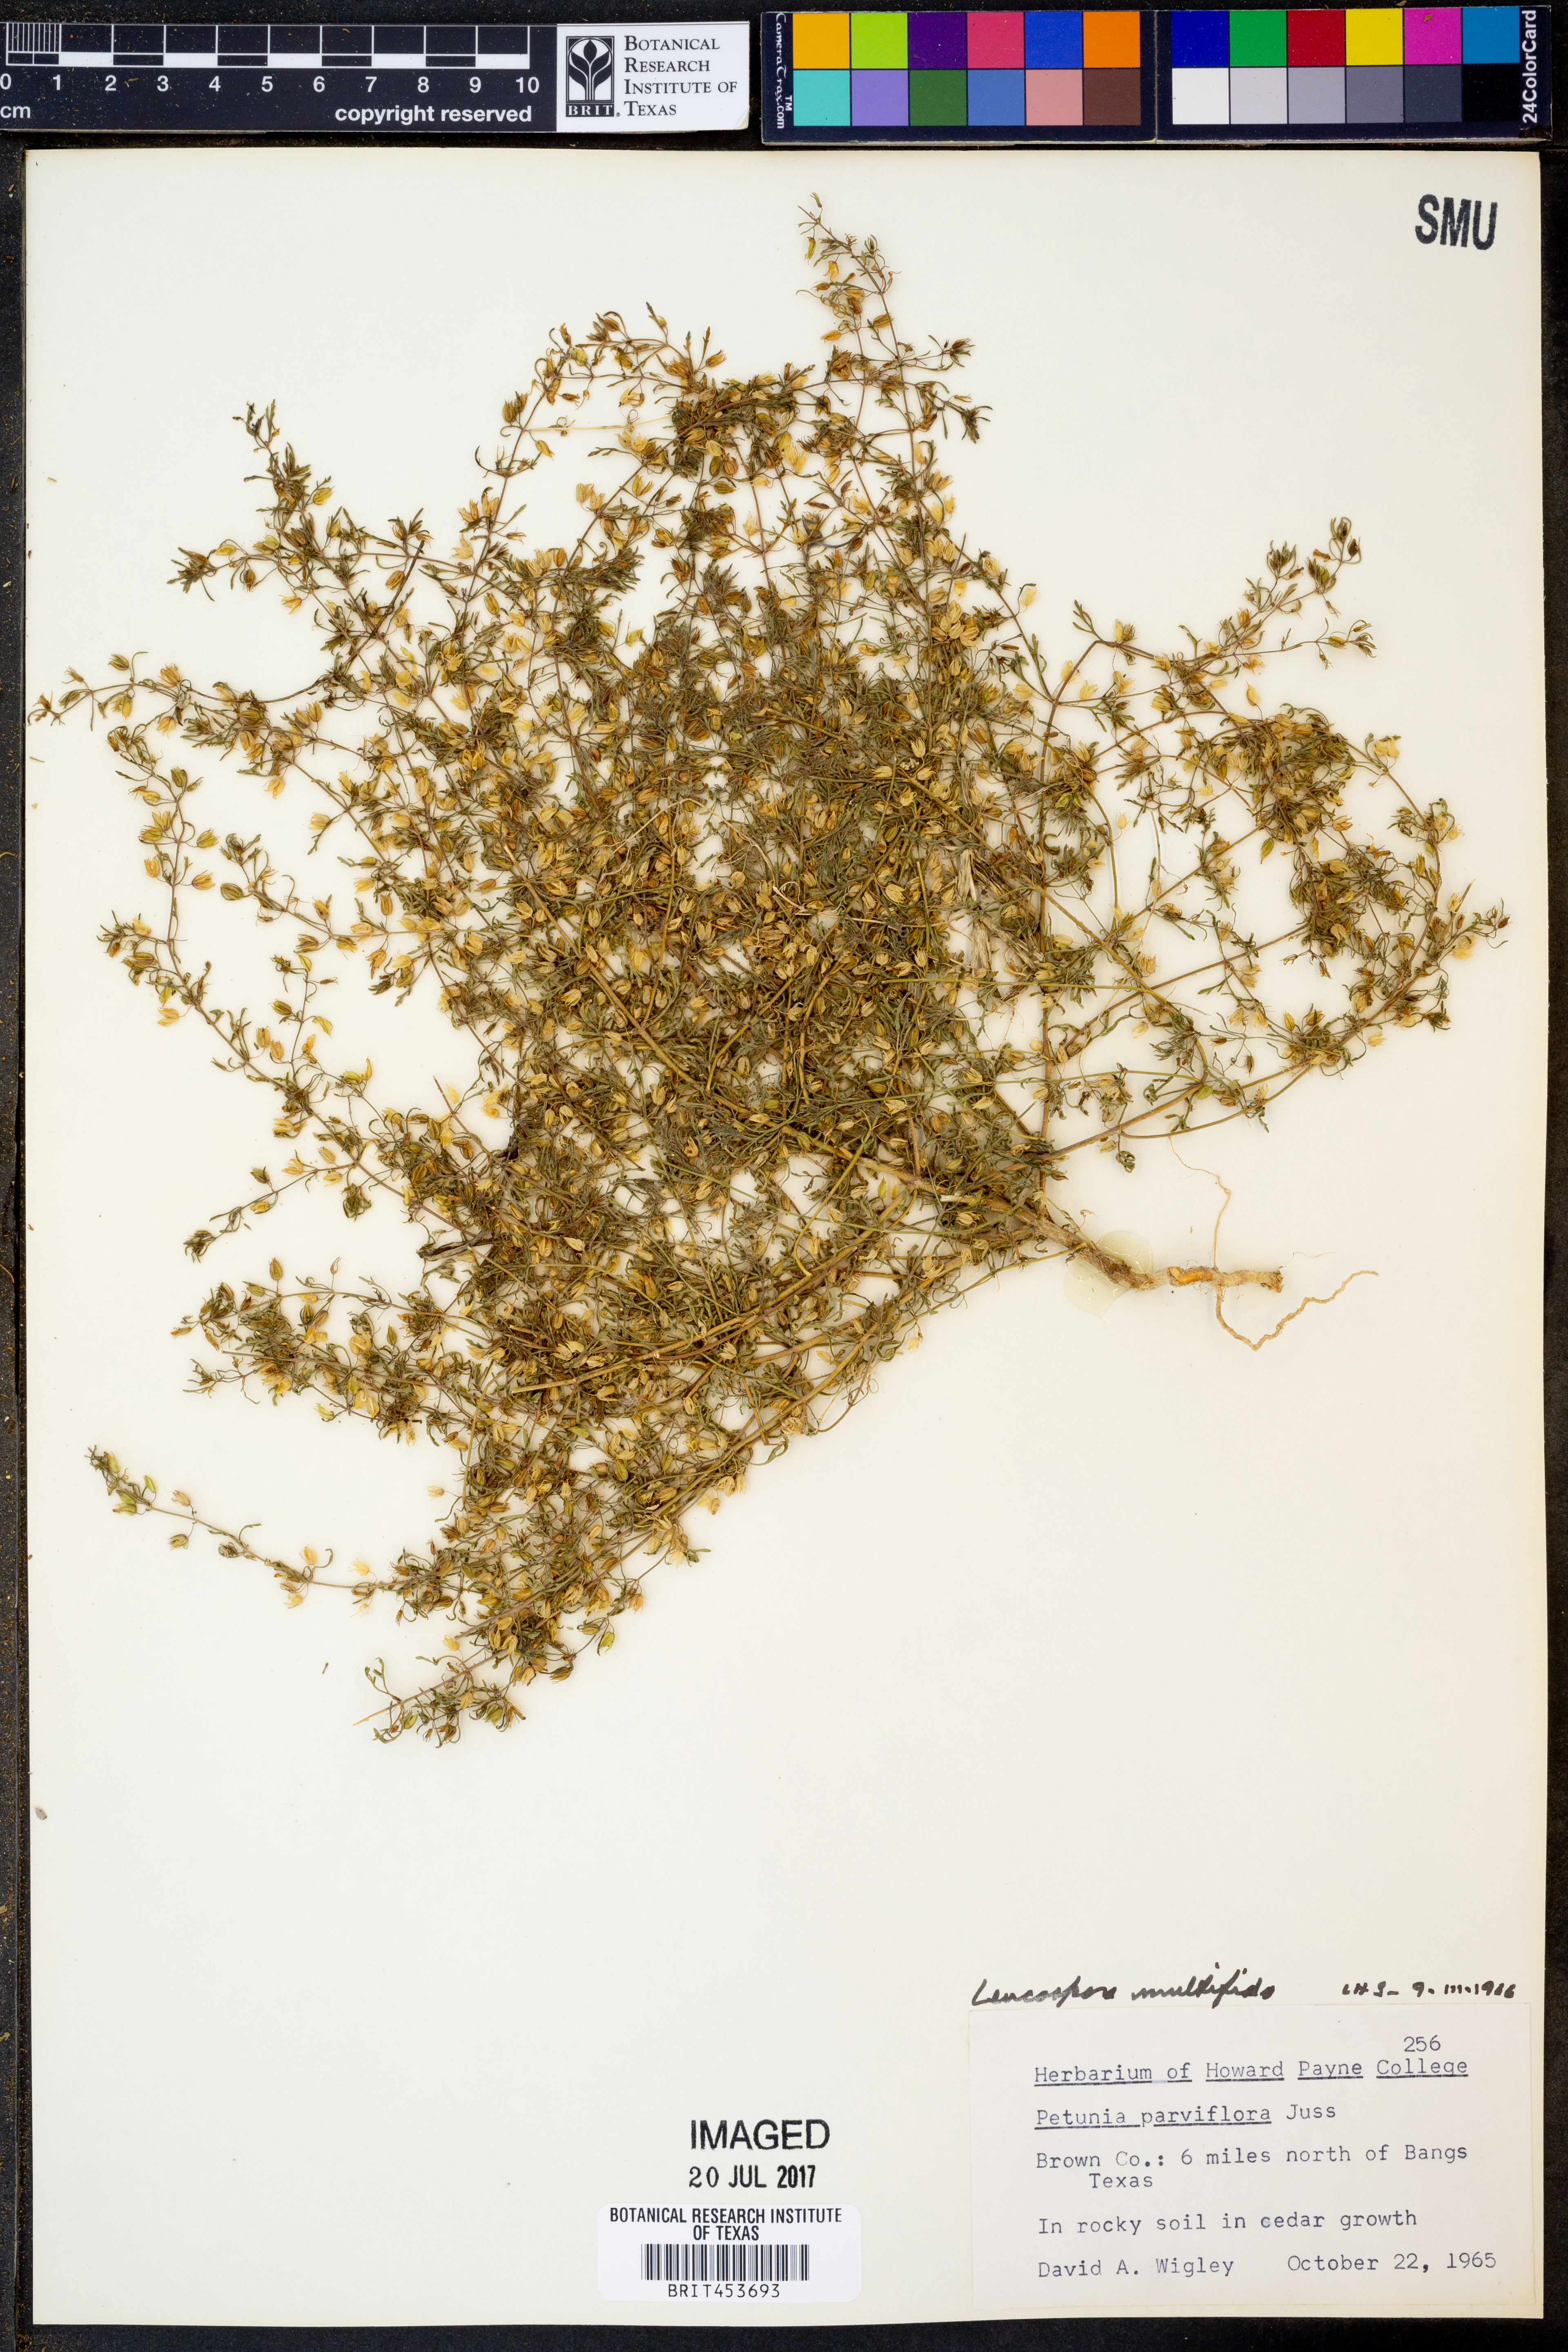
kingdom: Plantae
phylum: Tracheophyta
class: Magnoliopsida
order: Lamiales
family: Plantaginaceae
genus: Leucospora
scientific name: Leucospora multifida
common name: Narrow-leaf paleseed
